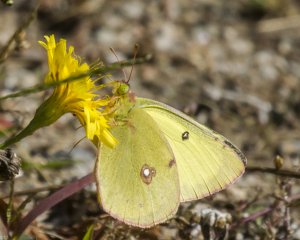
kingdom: Animalia
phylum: Arthropoda
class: Insecta
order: Lepidoptera
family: Pieridae
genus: Colias
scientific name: Colias philodice
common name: Clouded Sulphur
